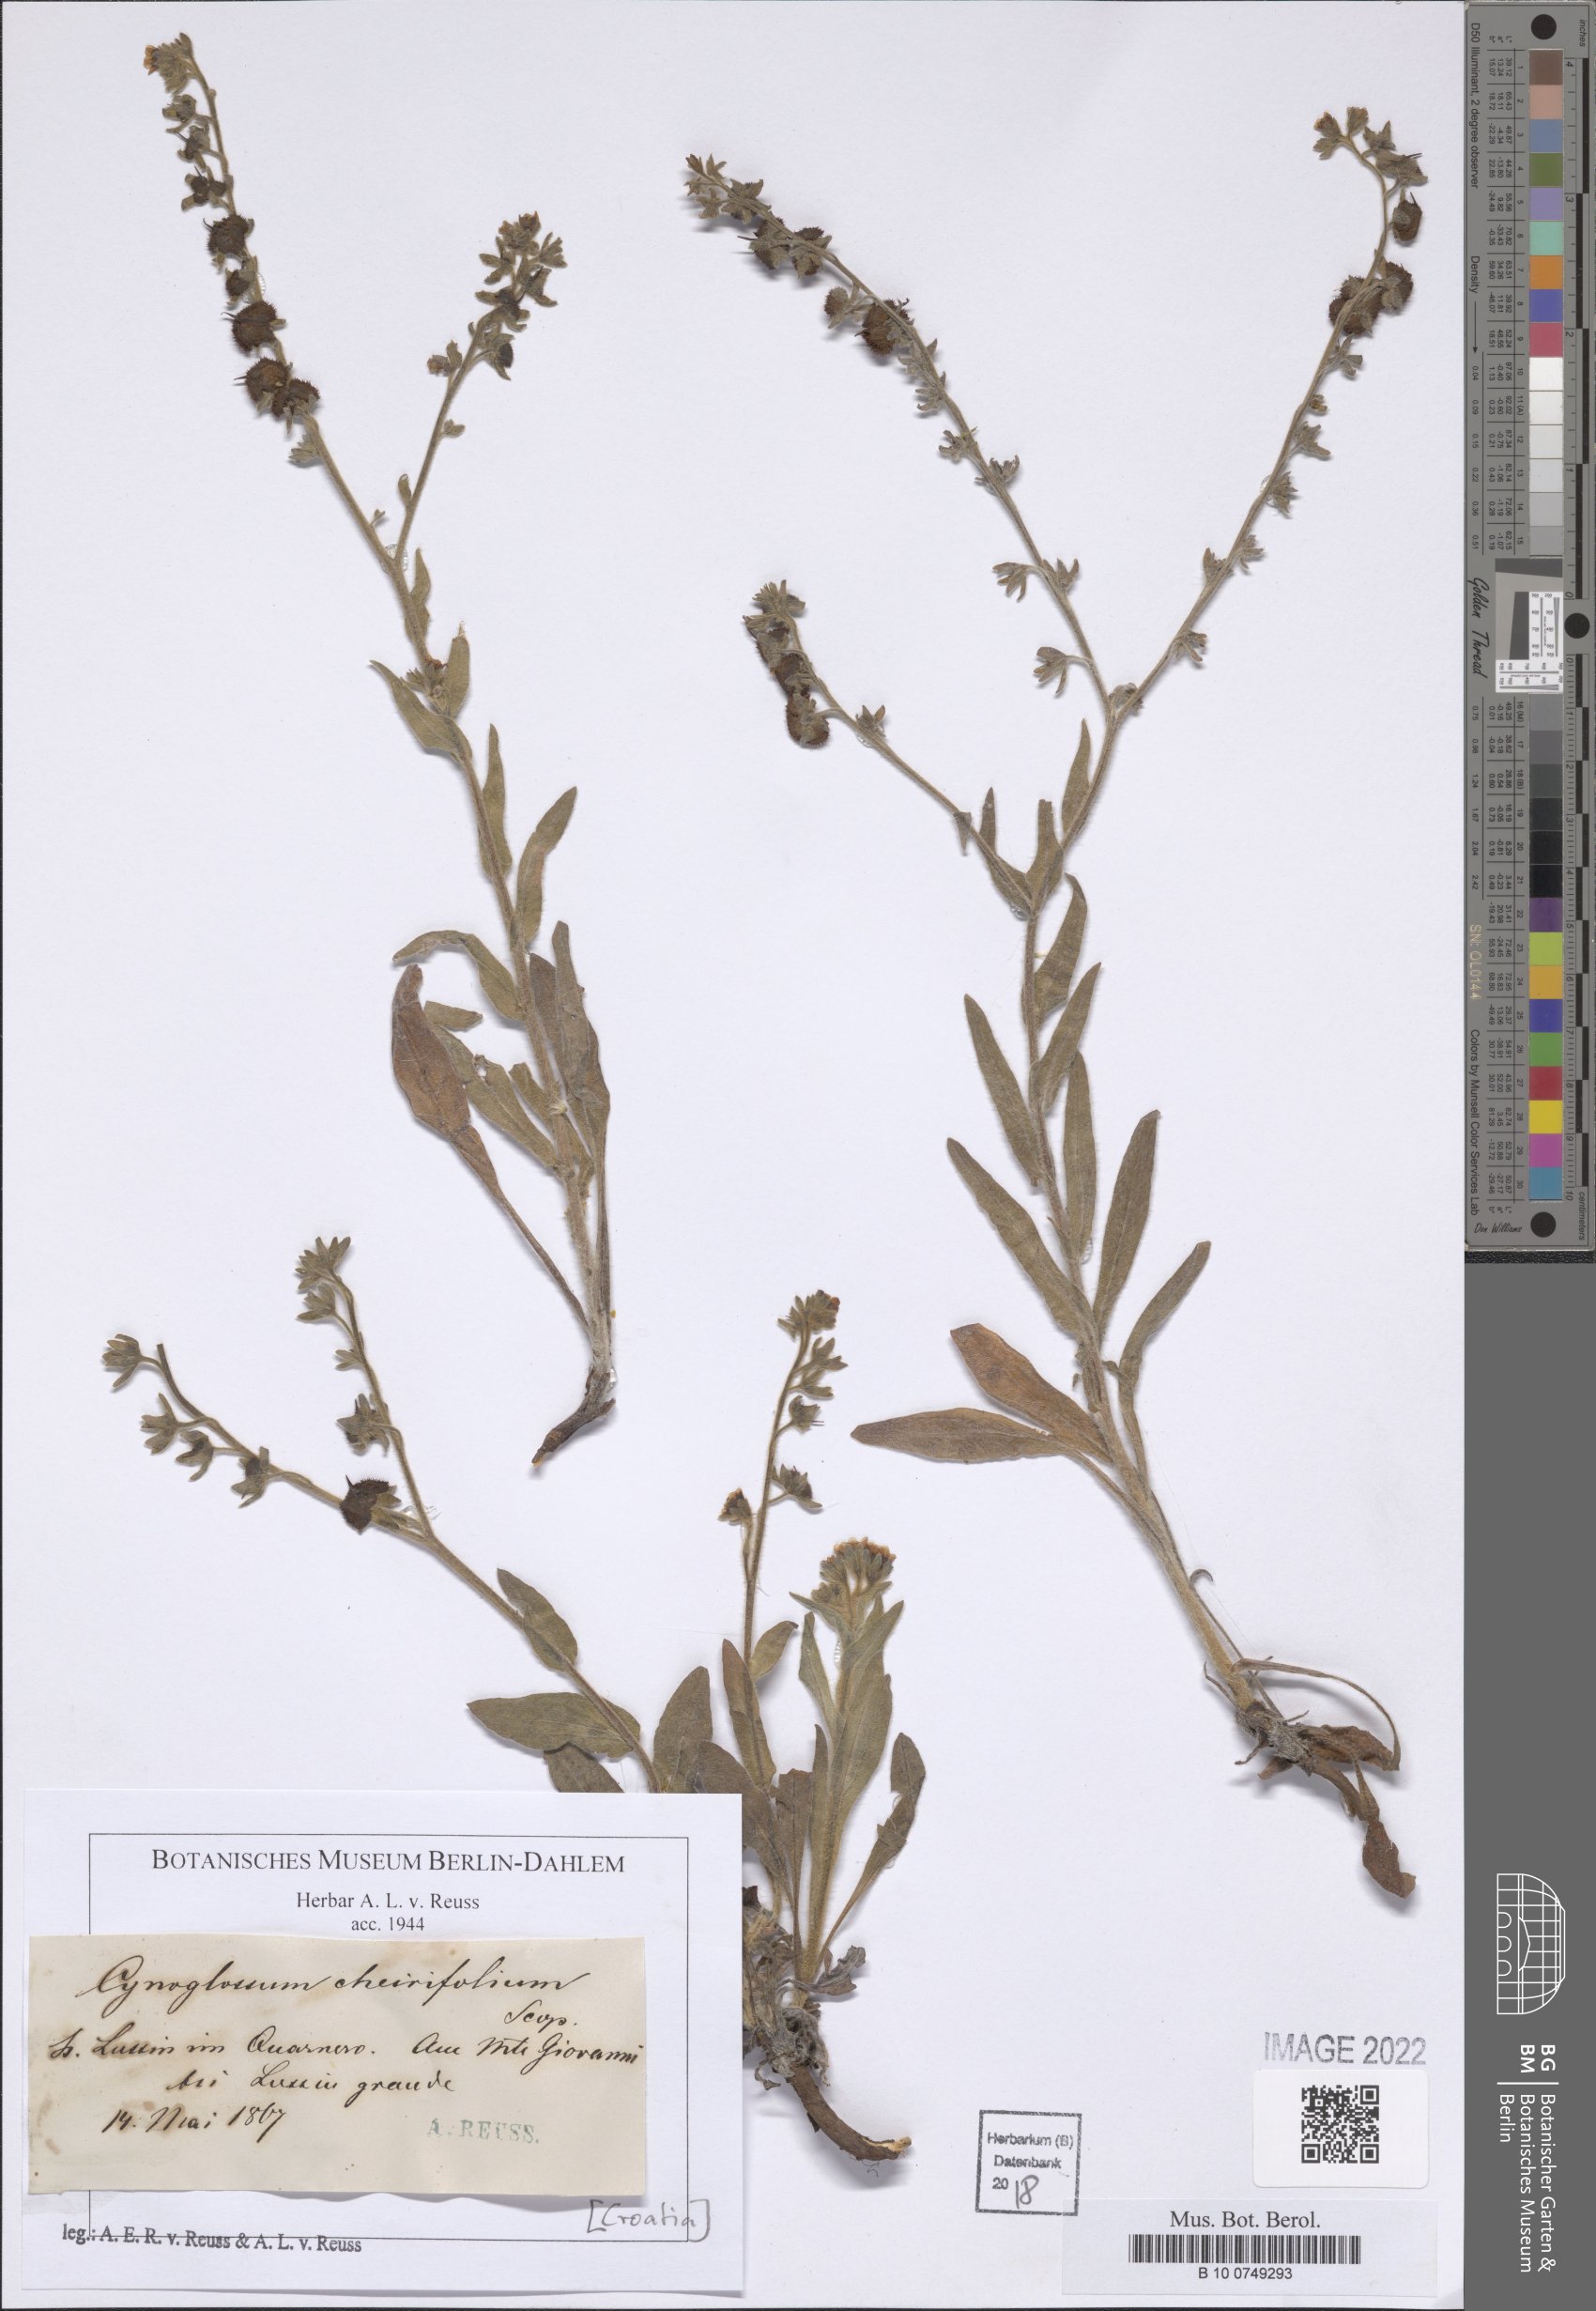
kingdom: Plantae
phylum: Tracheophyta
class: Magnoliopsida
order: Boraginales
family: Boraginaceae
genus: Pardoglossum
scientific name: Pardoglossum cheirifolium
